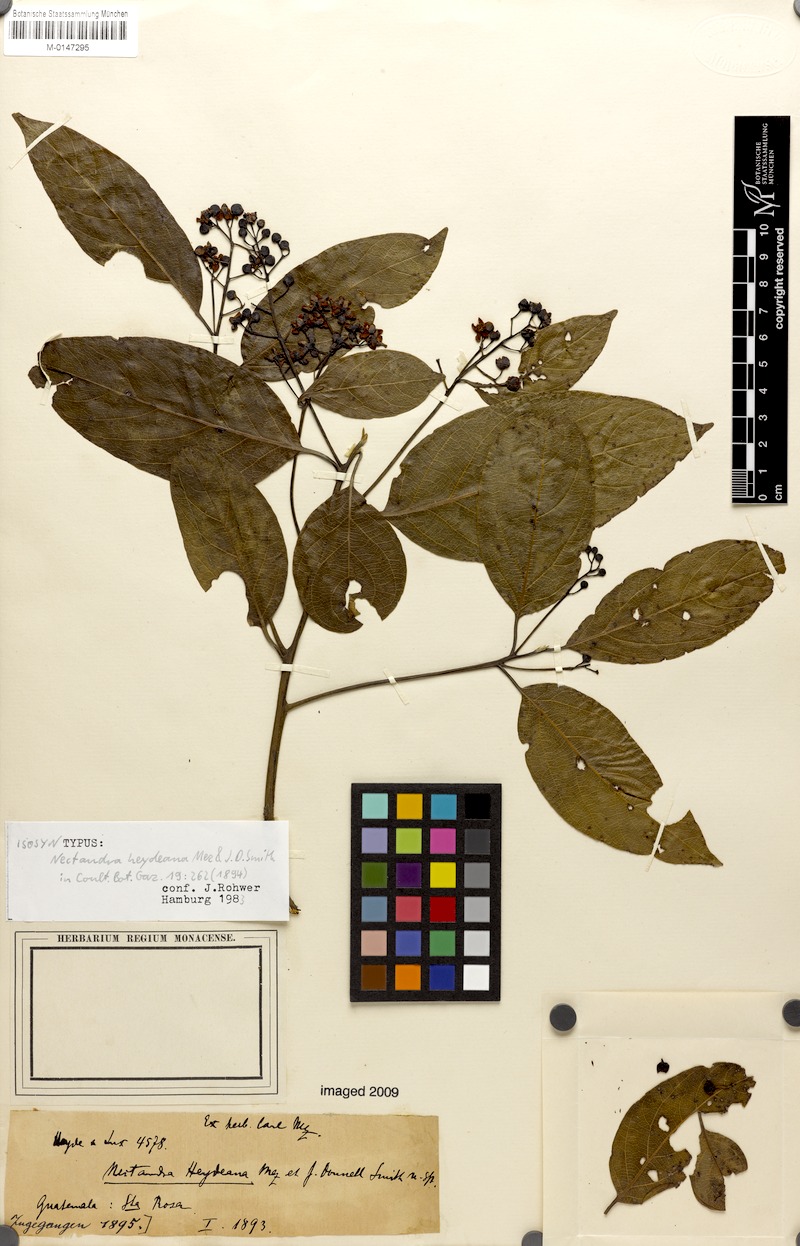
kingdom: Plantae
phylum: Tracheophyta
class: Magnoliopsida
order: Laurales
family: Lauraceae
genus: Ocotea
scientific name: Ocotea heydeana
